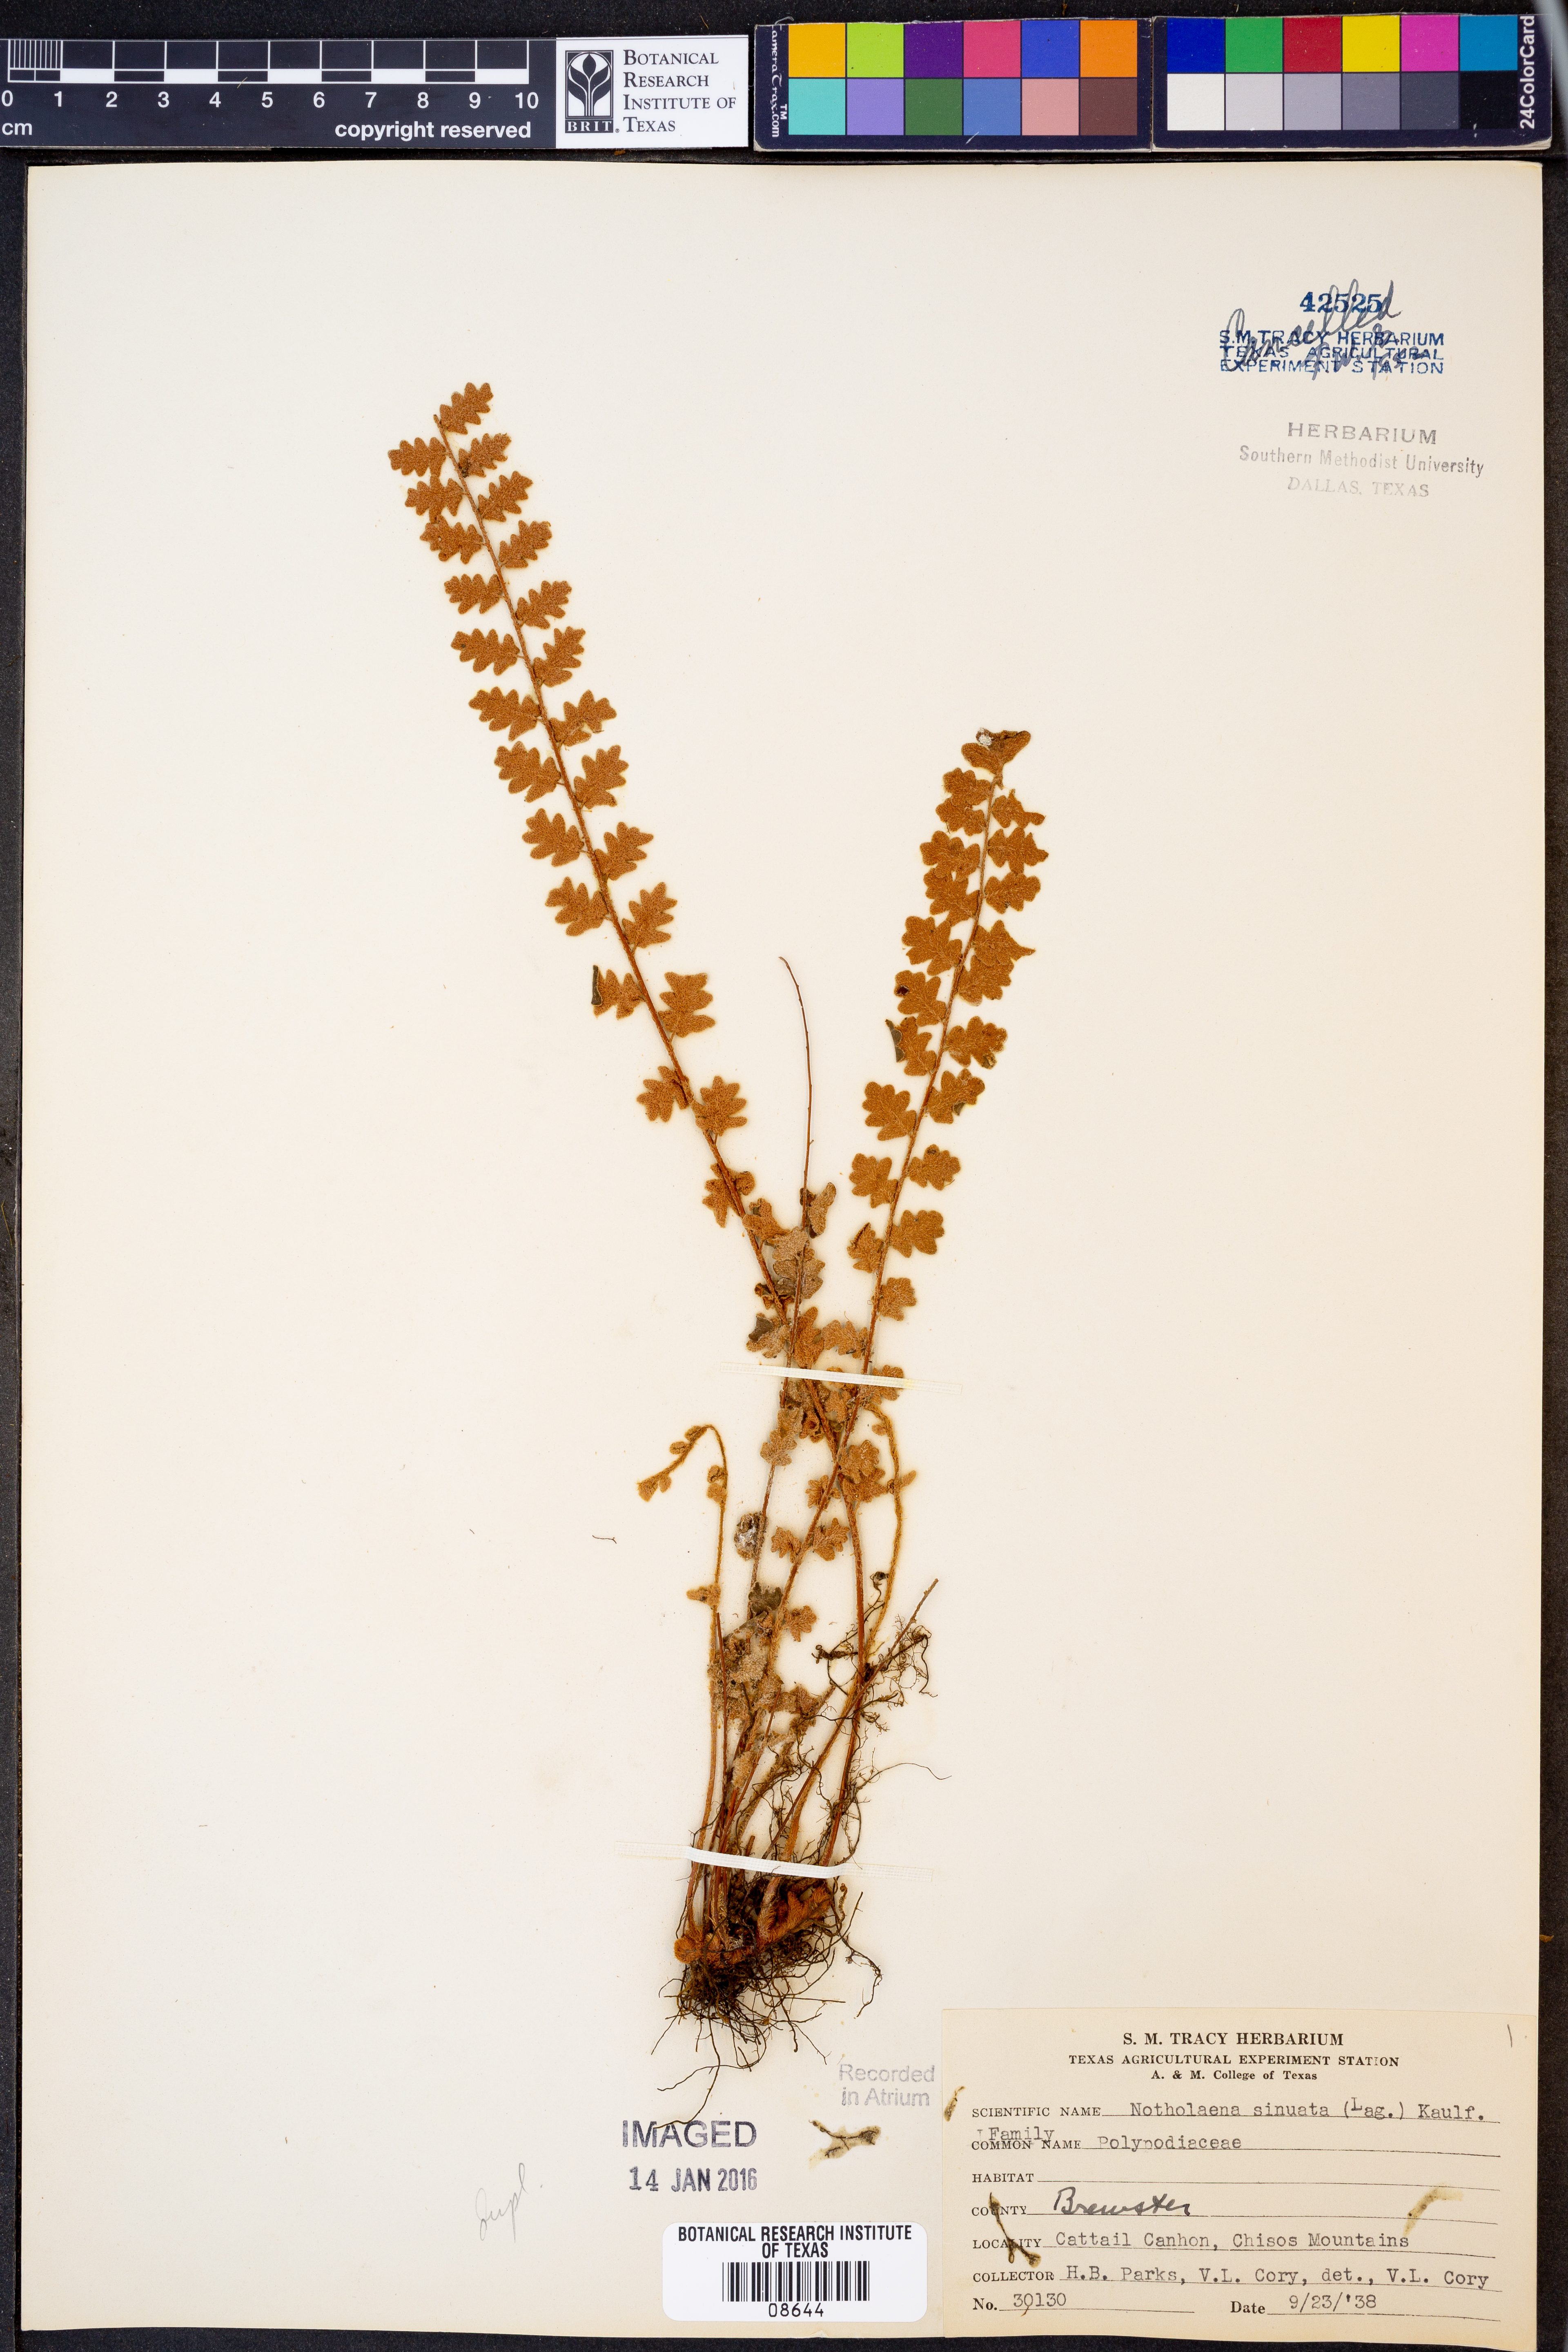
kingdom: Plantae
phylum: Tracheophyta
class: Polypodiopsida
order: Polypodiales
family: Pteridaceae
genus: Astrolepis
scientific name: Astrolepis sinuata
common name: Wavy scaly cloakfern
